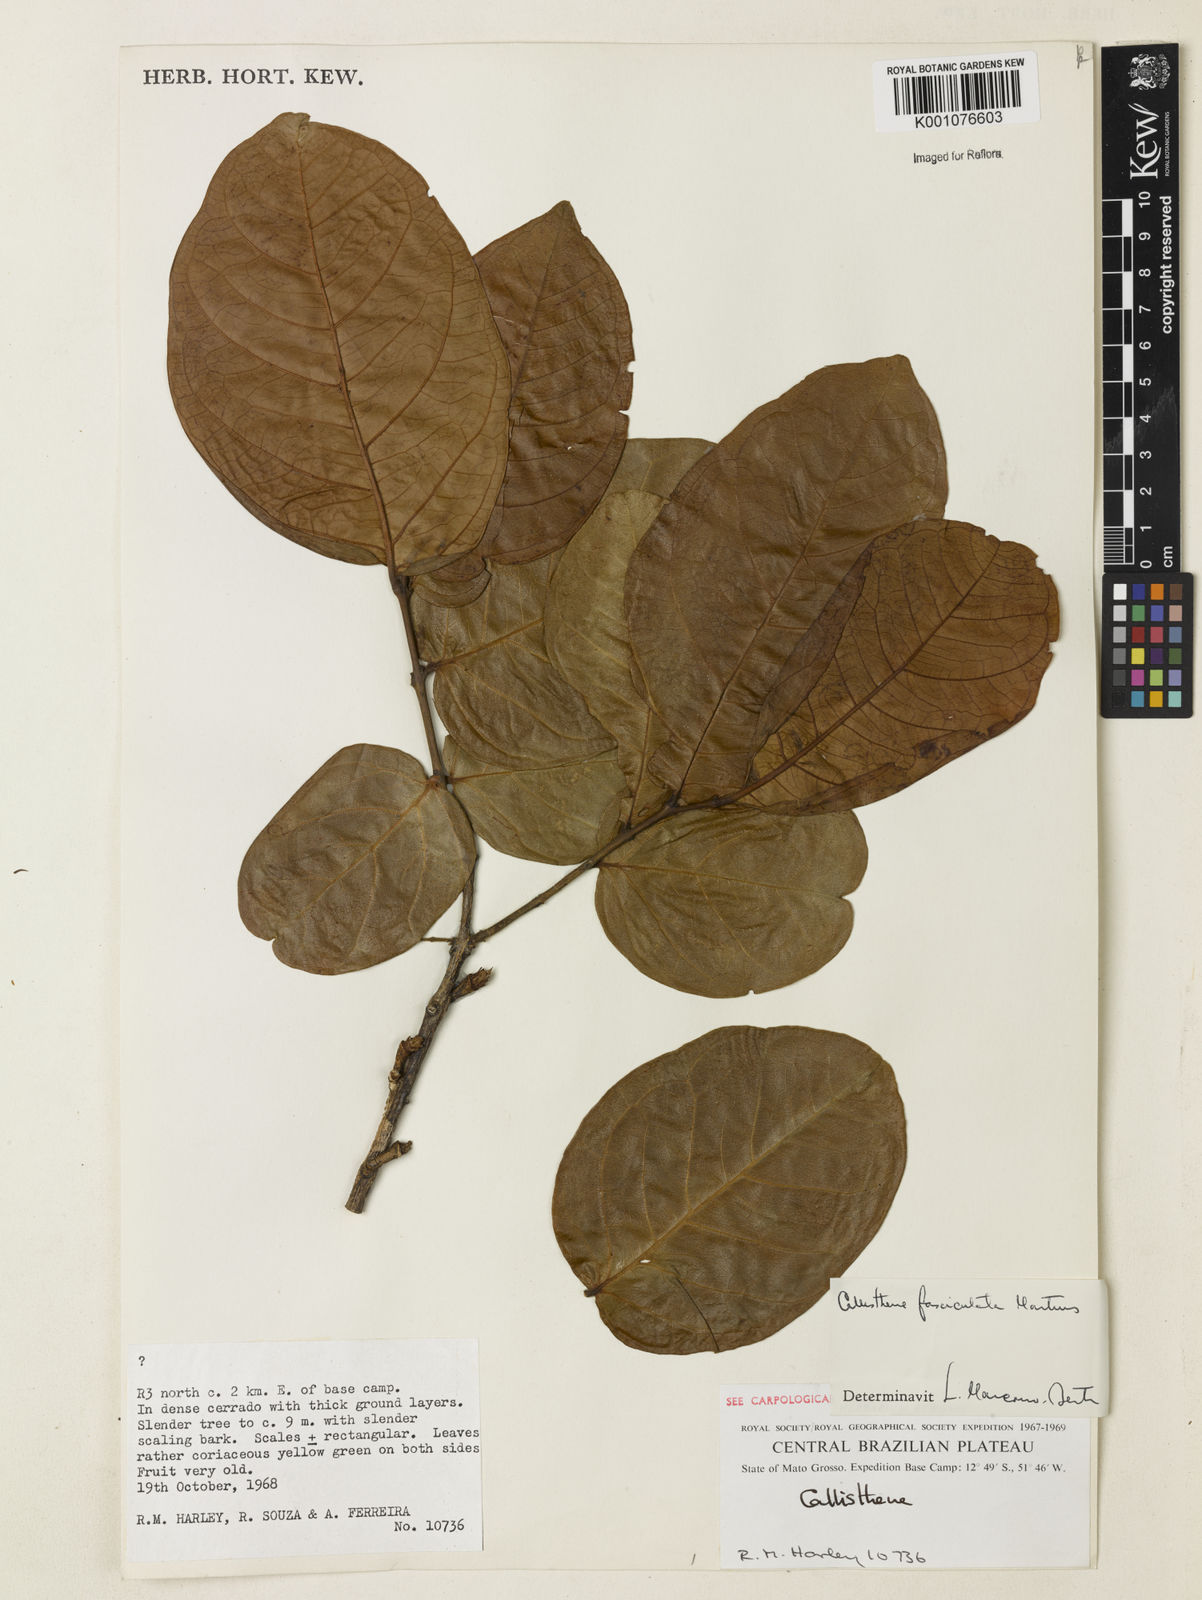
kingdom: Plantae
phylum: Tracheophyta
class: Magnoliopsida
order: Myrtales
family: Vochysiaceae
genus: Callisthene
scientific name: Callisthene fasciculata
